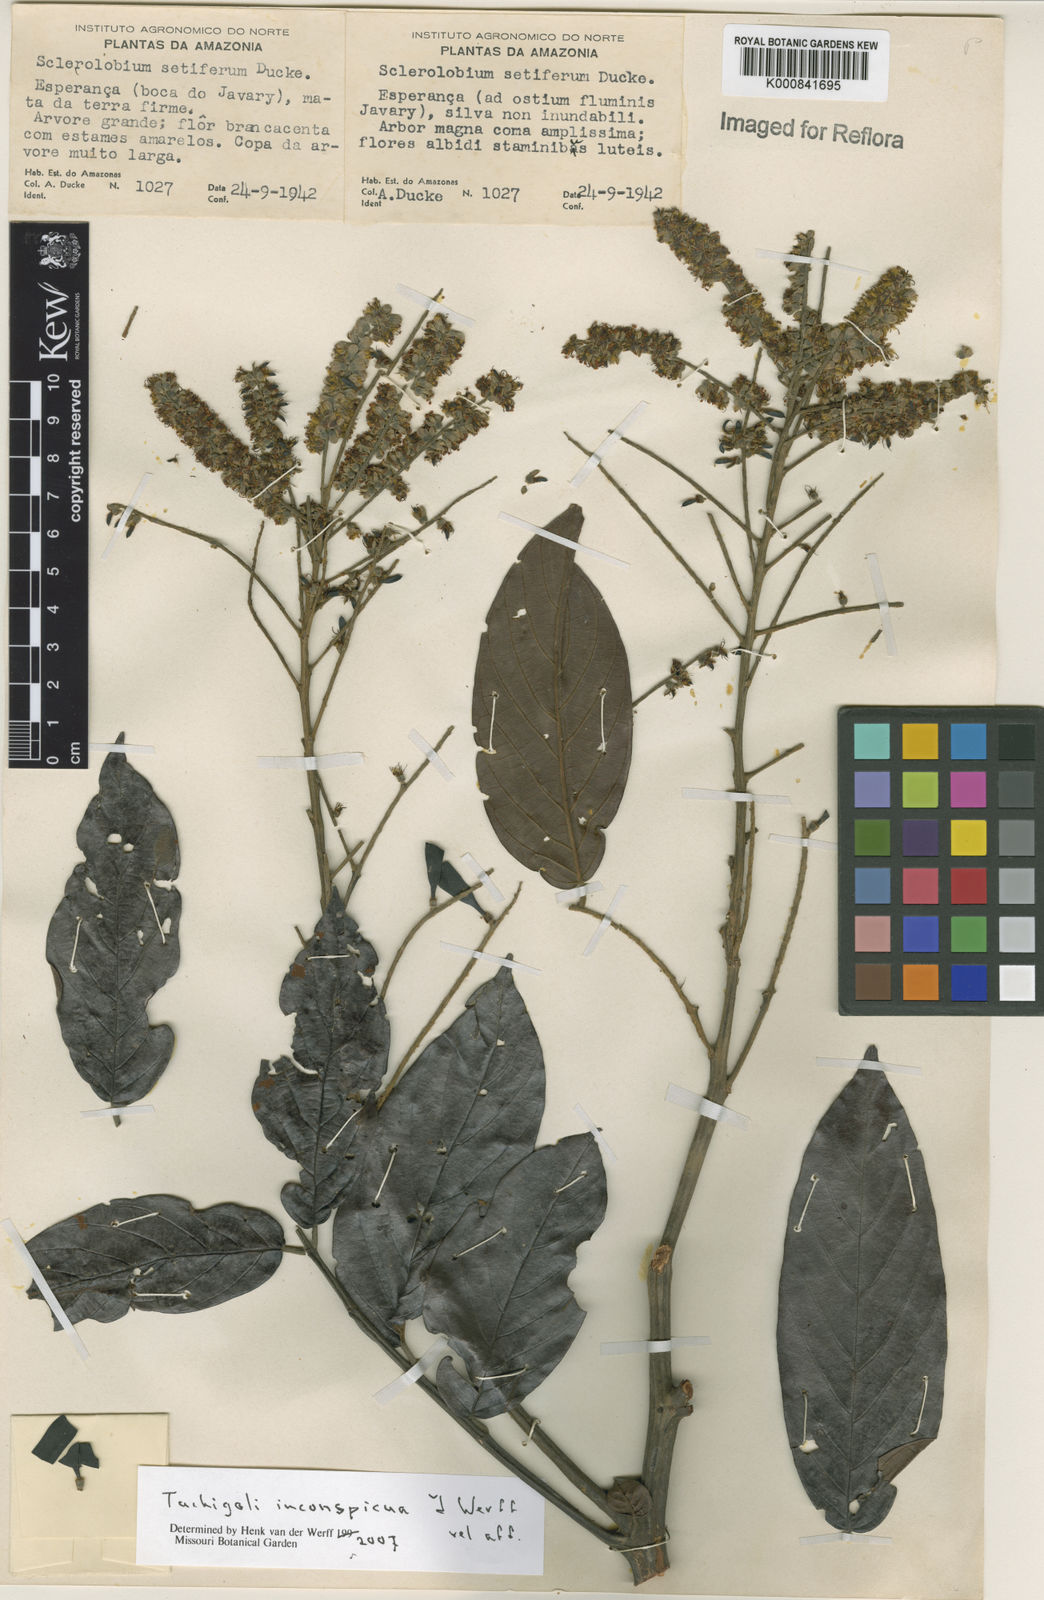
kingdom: Plantae
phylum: Tracheophyta
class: Magnoliopsida
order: Fabales
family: Fabaceae
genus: Tachigali
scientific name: Tachigali inconspicua
